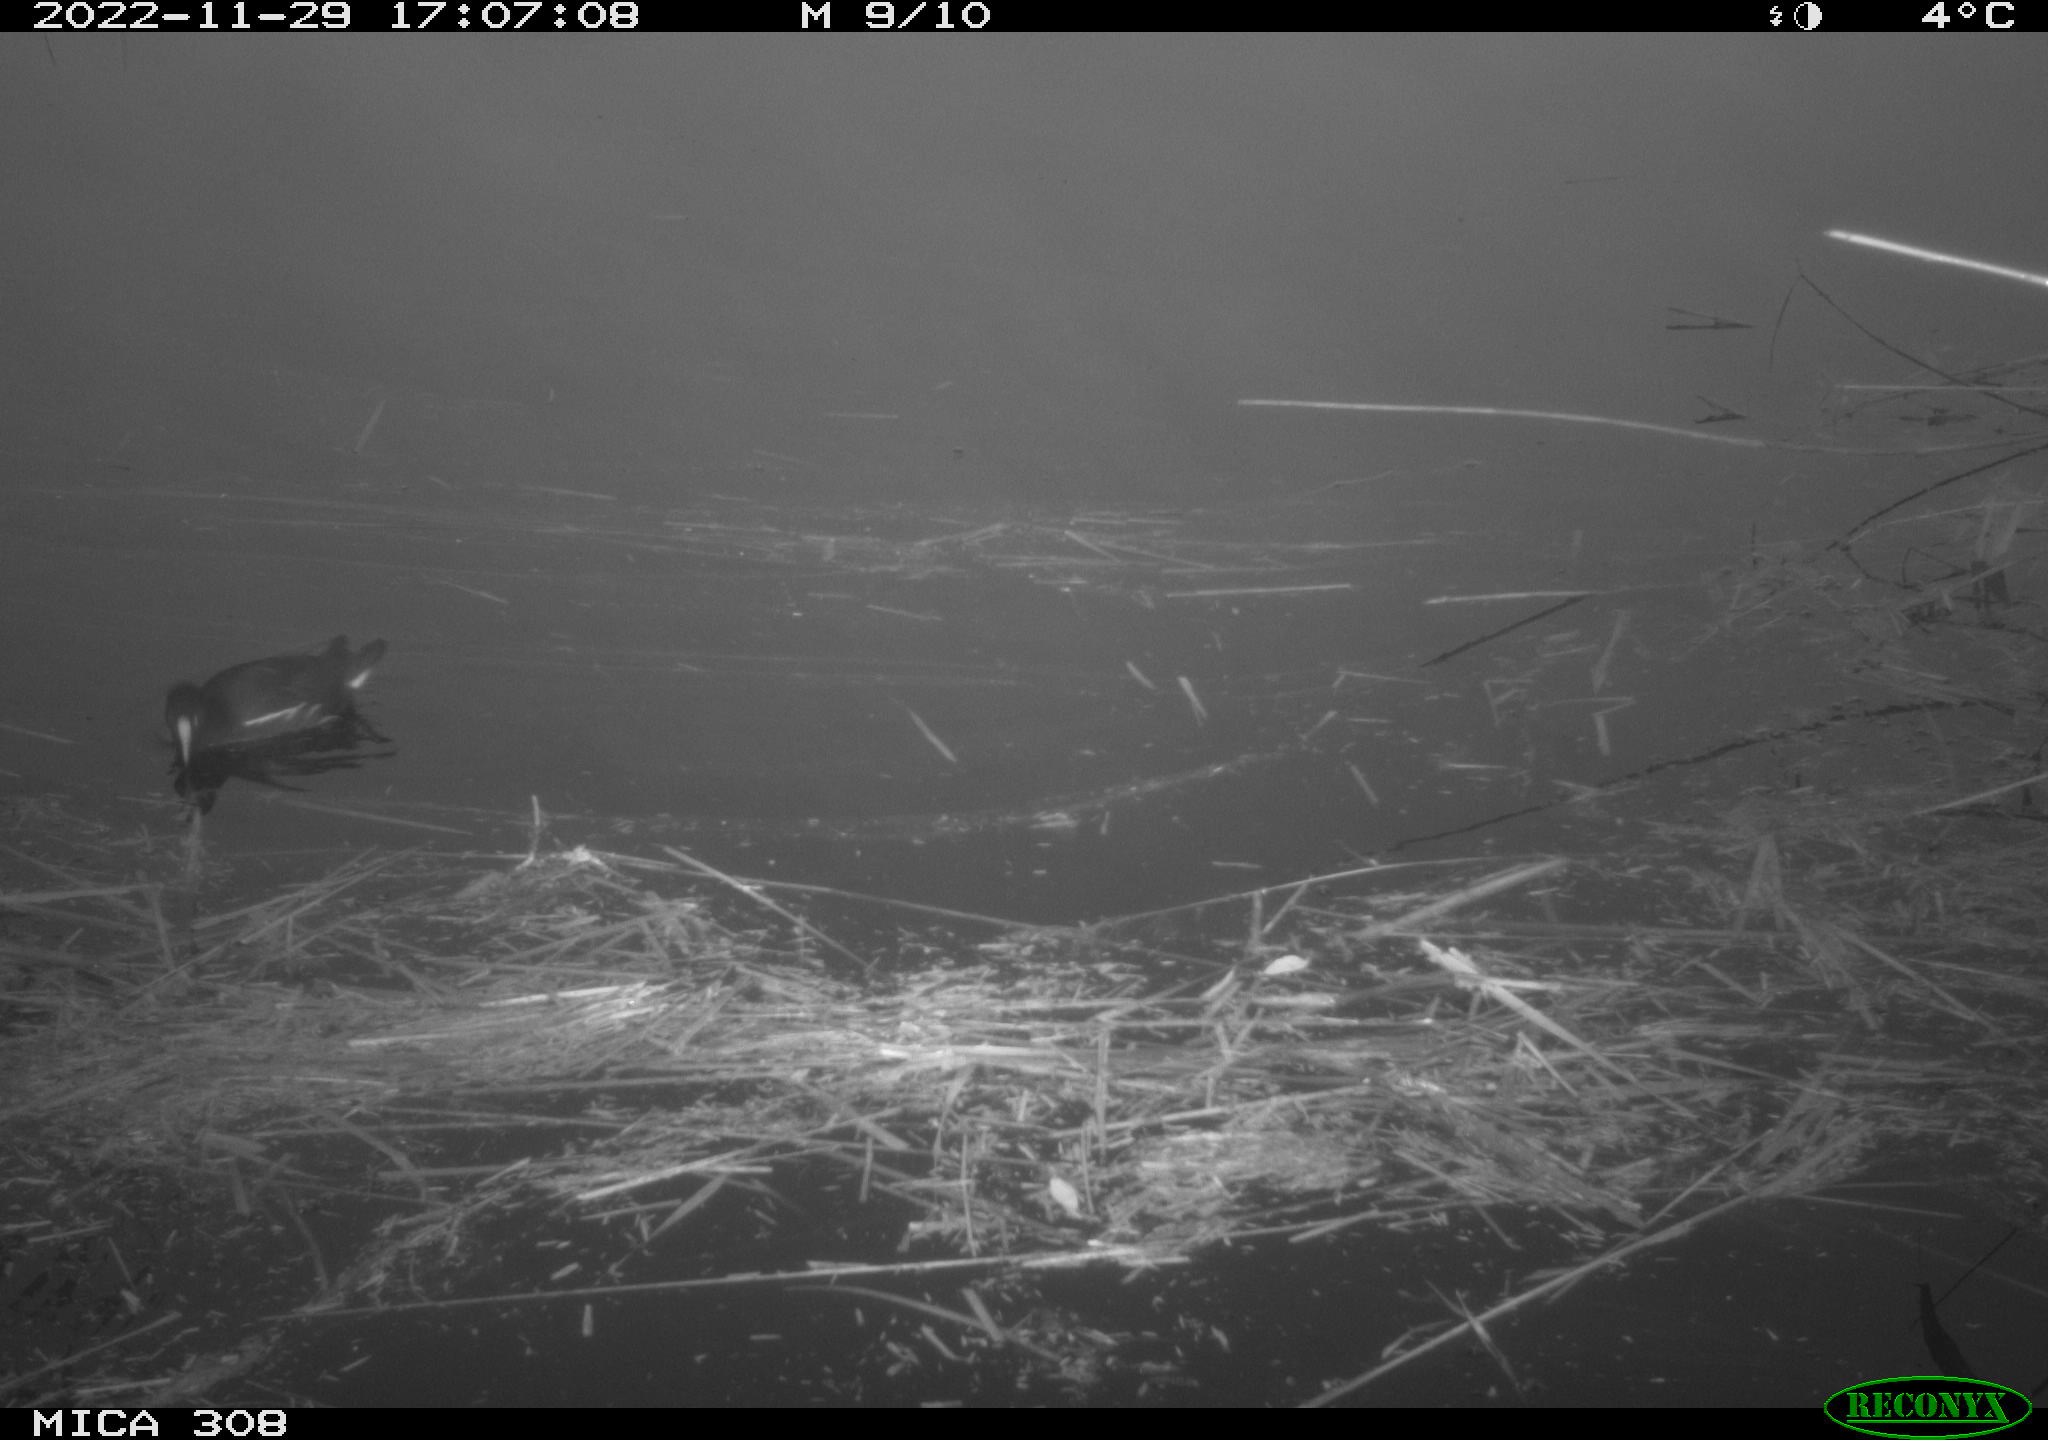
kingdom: Animalia
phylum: Chordata
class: Aves
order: Gruiformes
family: Rallidae
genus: Gallinula
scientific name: Gallinula chloropus
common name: Common moorhen
